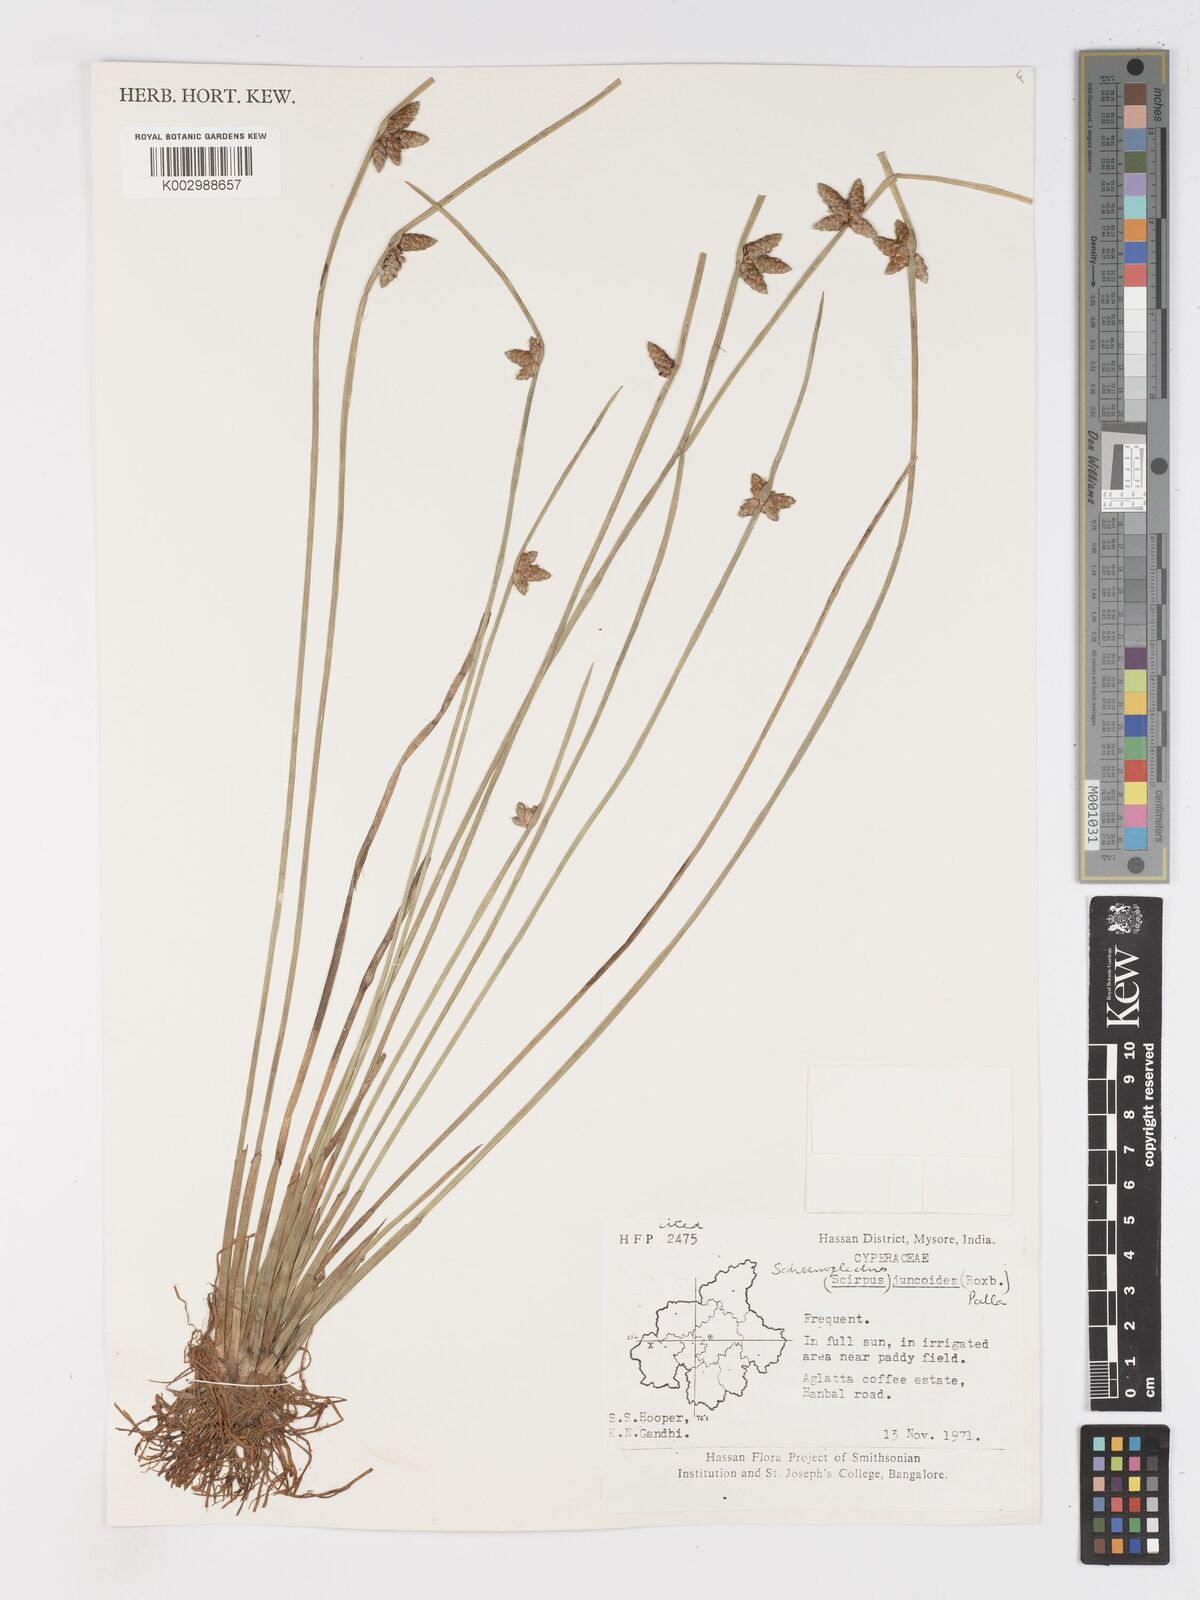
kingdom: Plantae
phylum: Tracheophyta
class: Liliopsida
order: Poales
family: Cyperaceae
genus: Schoenoplectiella
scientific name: Schoenoplectiella juncoides
